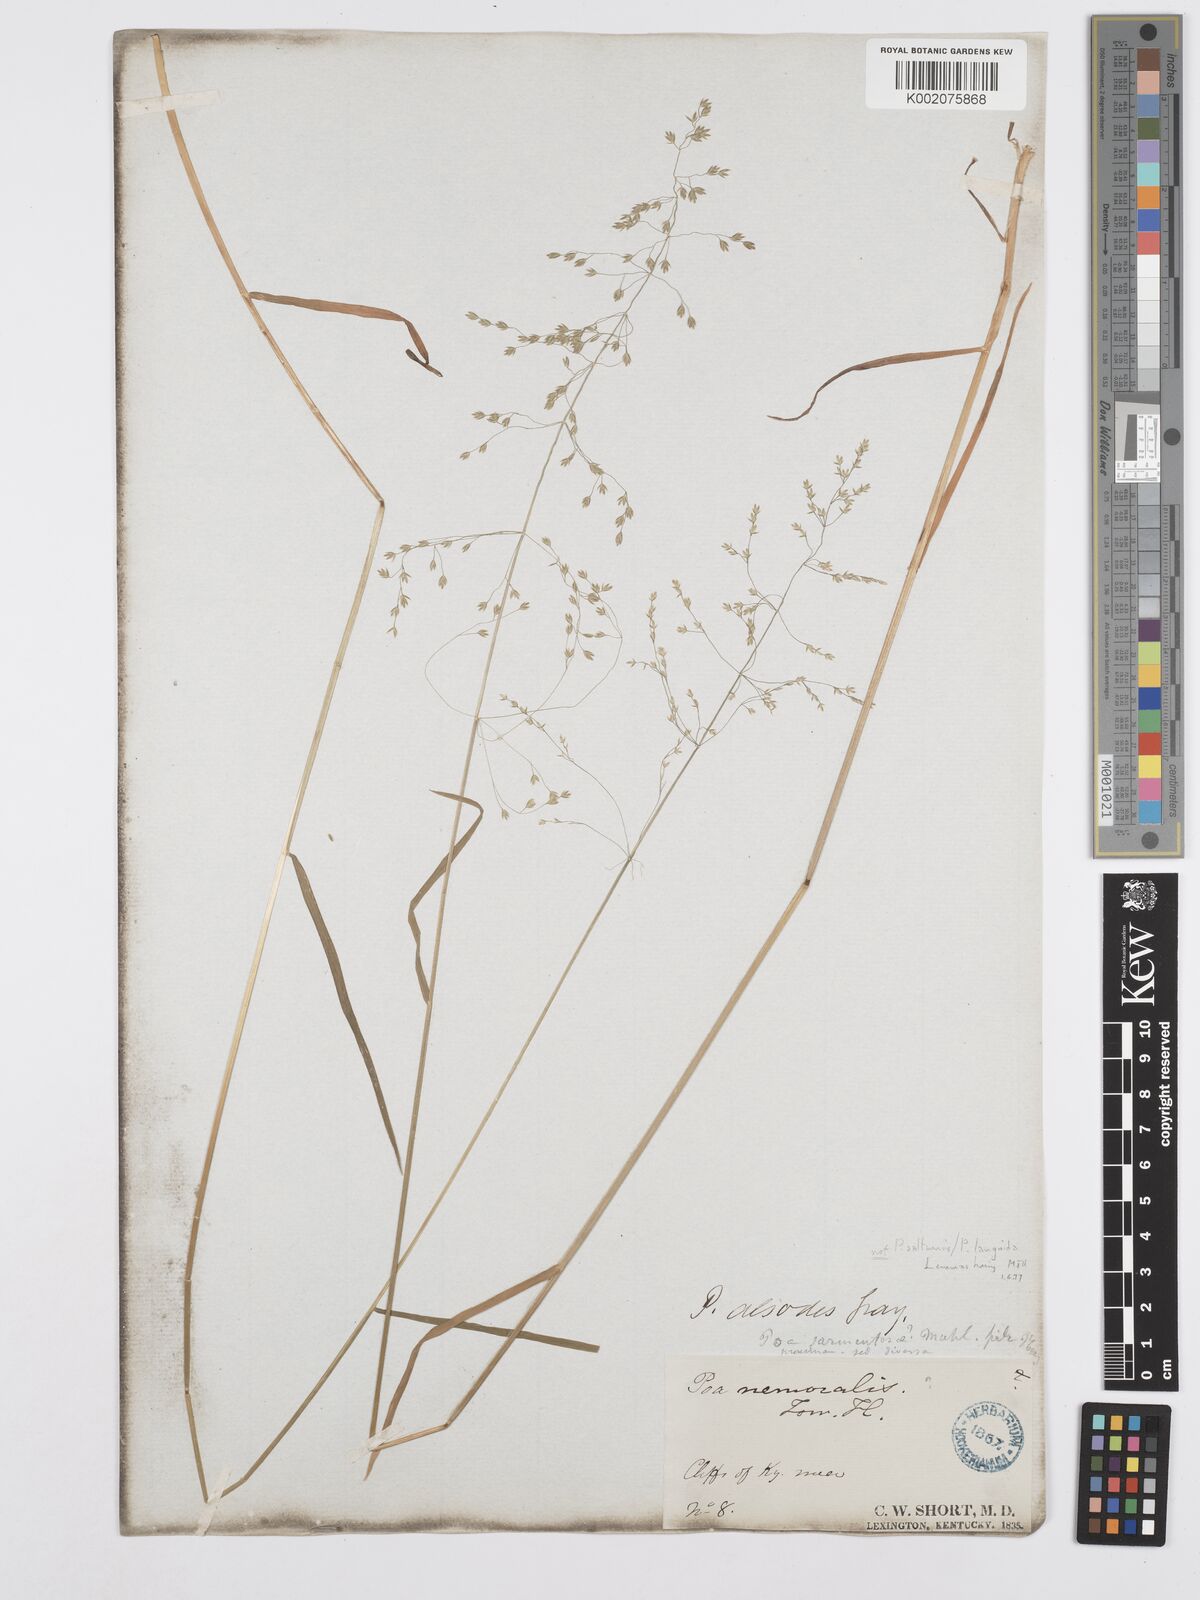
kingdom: Plantae
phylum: Tracheophyta
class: Liliopsida
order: Poales
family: Poaceae
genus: Poa
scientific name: Poa saltuensis
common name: Bushy pasture speargrass
